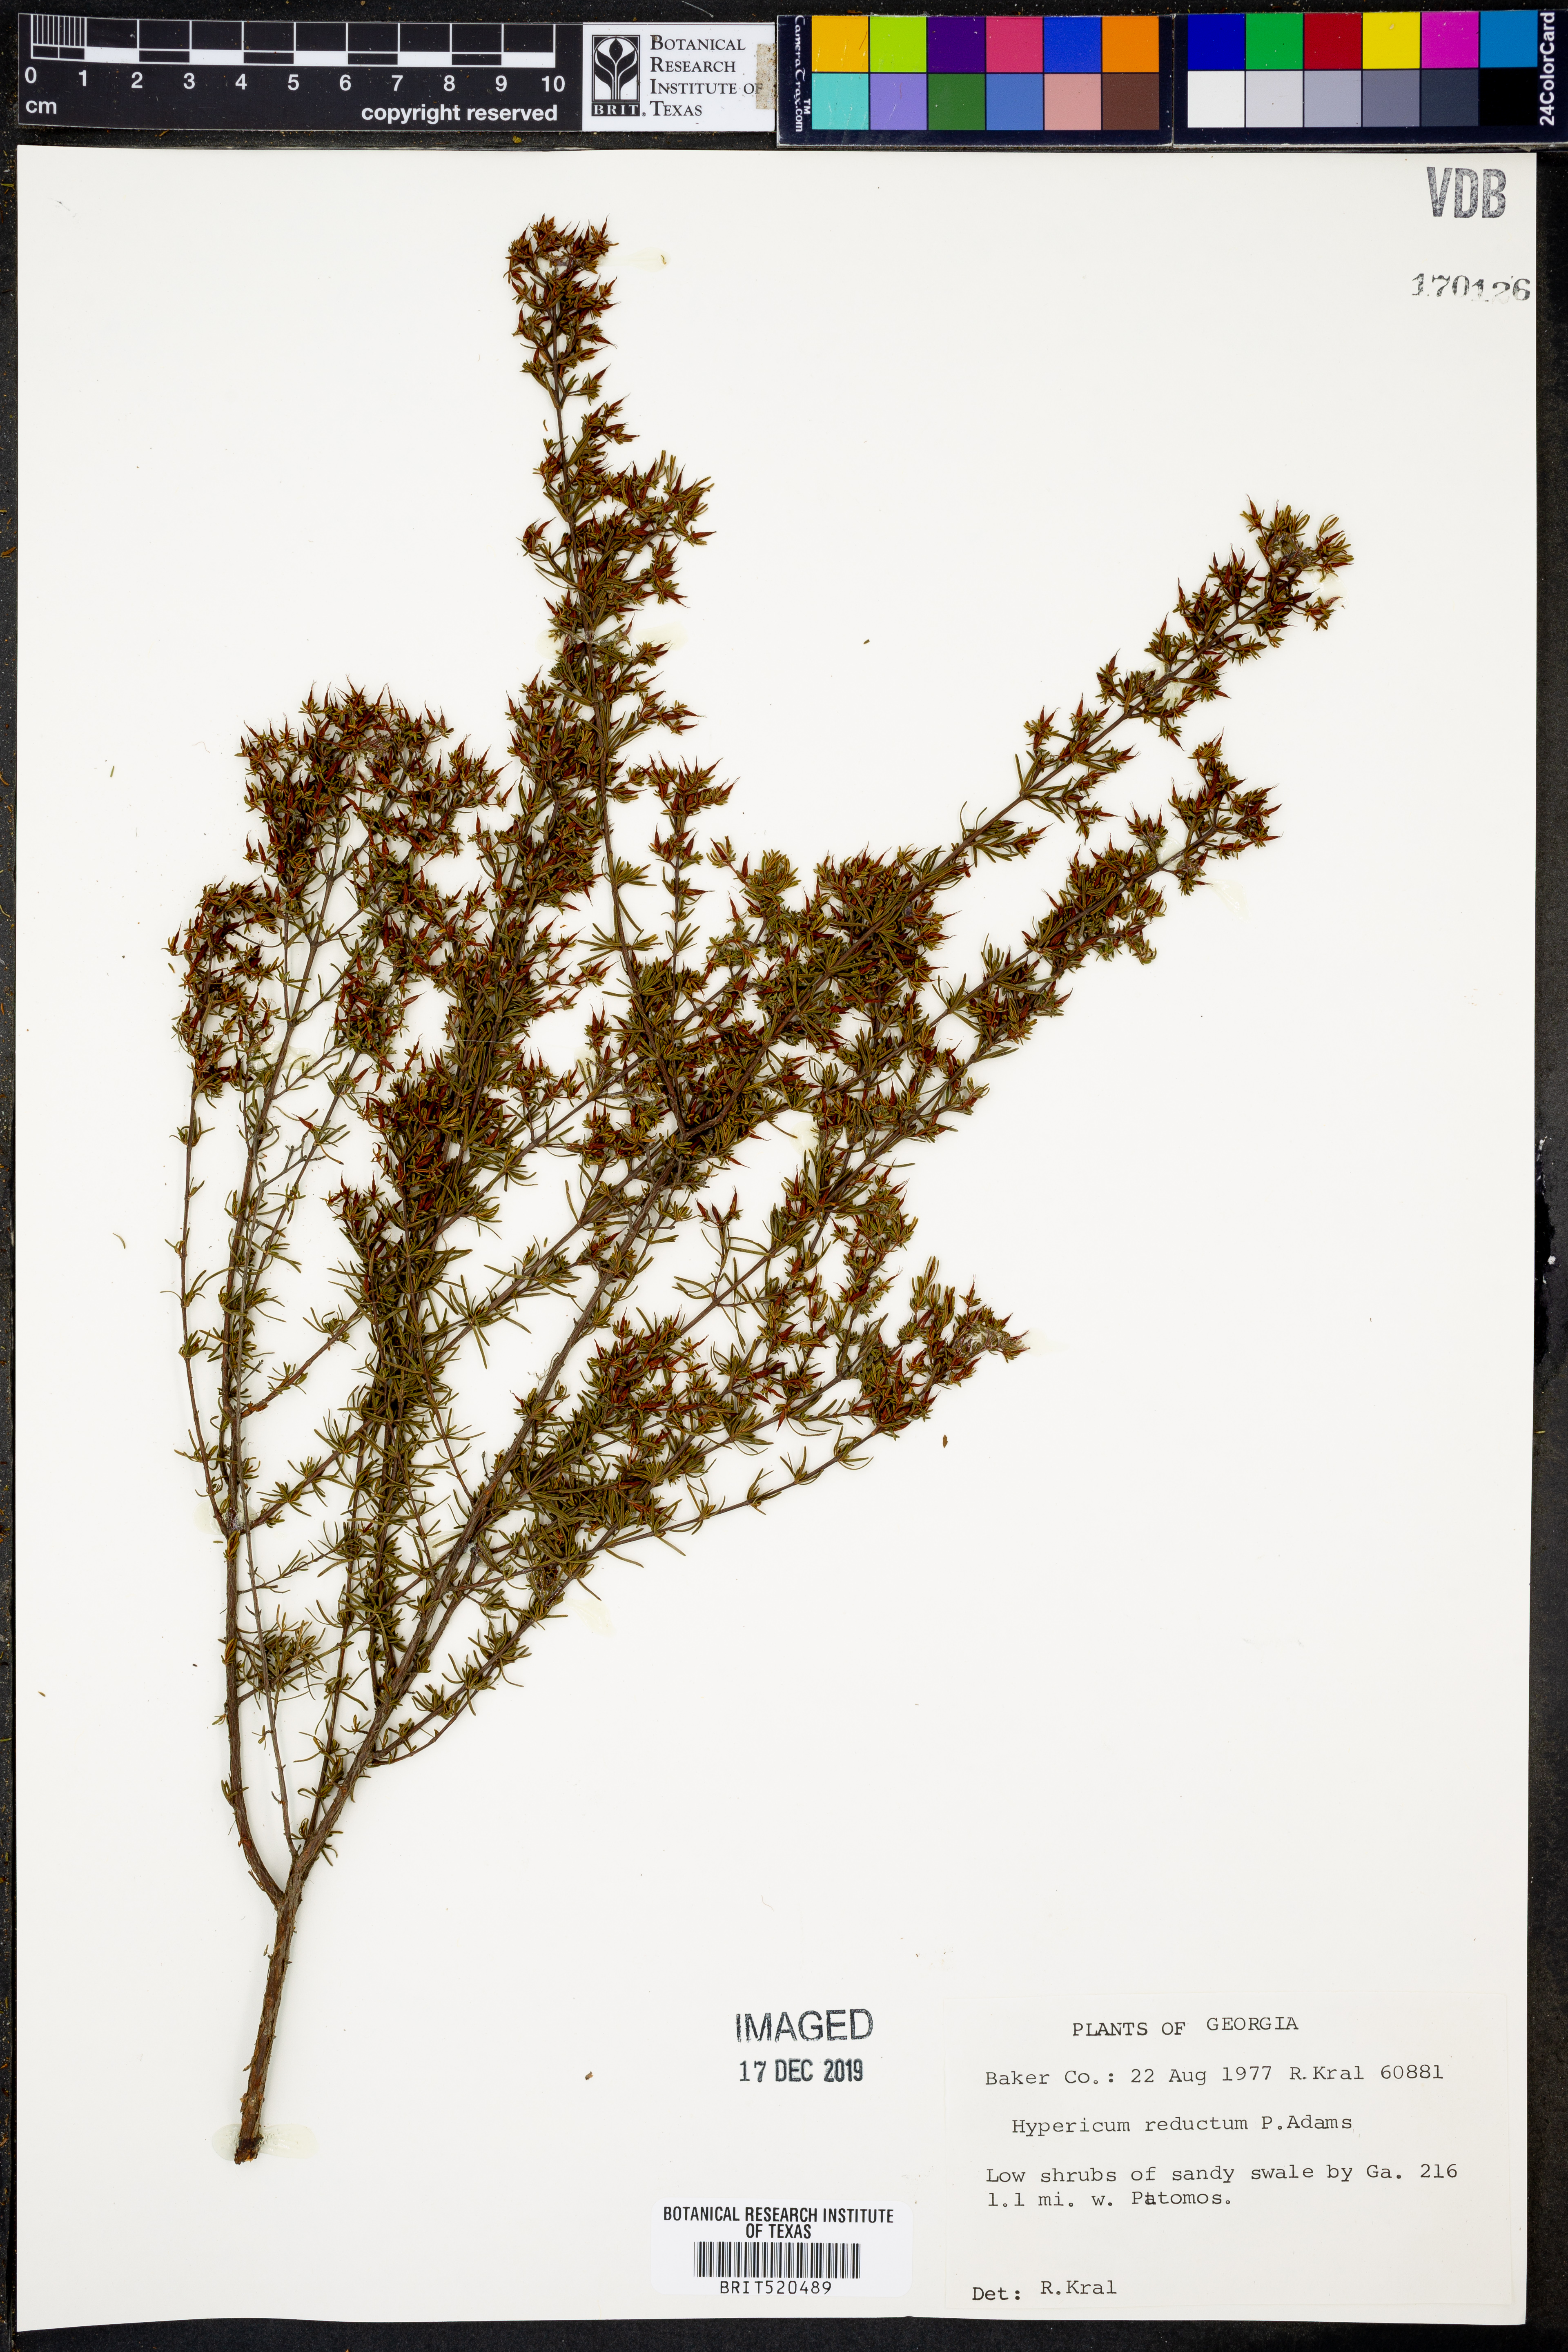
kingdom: Plantae
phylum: Tracheophyta
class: Magnoliopsida
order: Malpighiales
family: Hypericaceae
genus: Hypericum
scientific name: Hypericum tenuifolium
